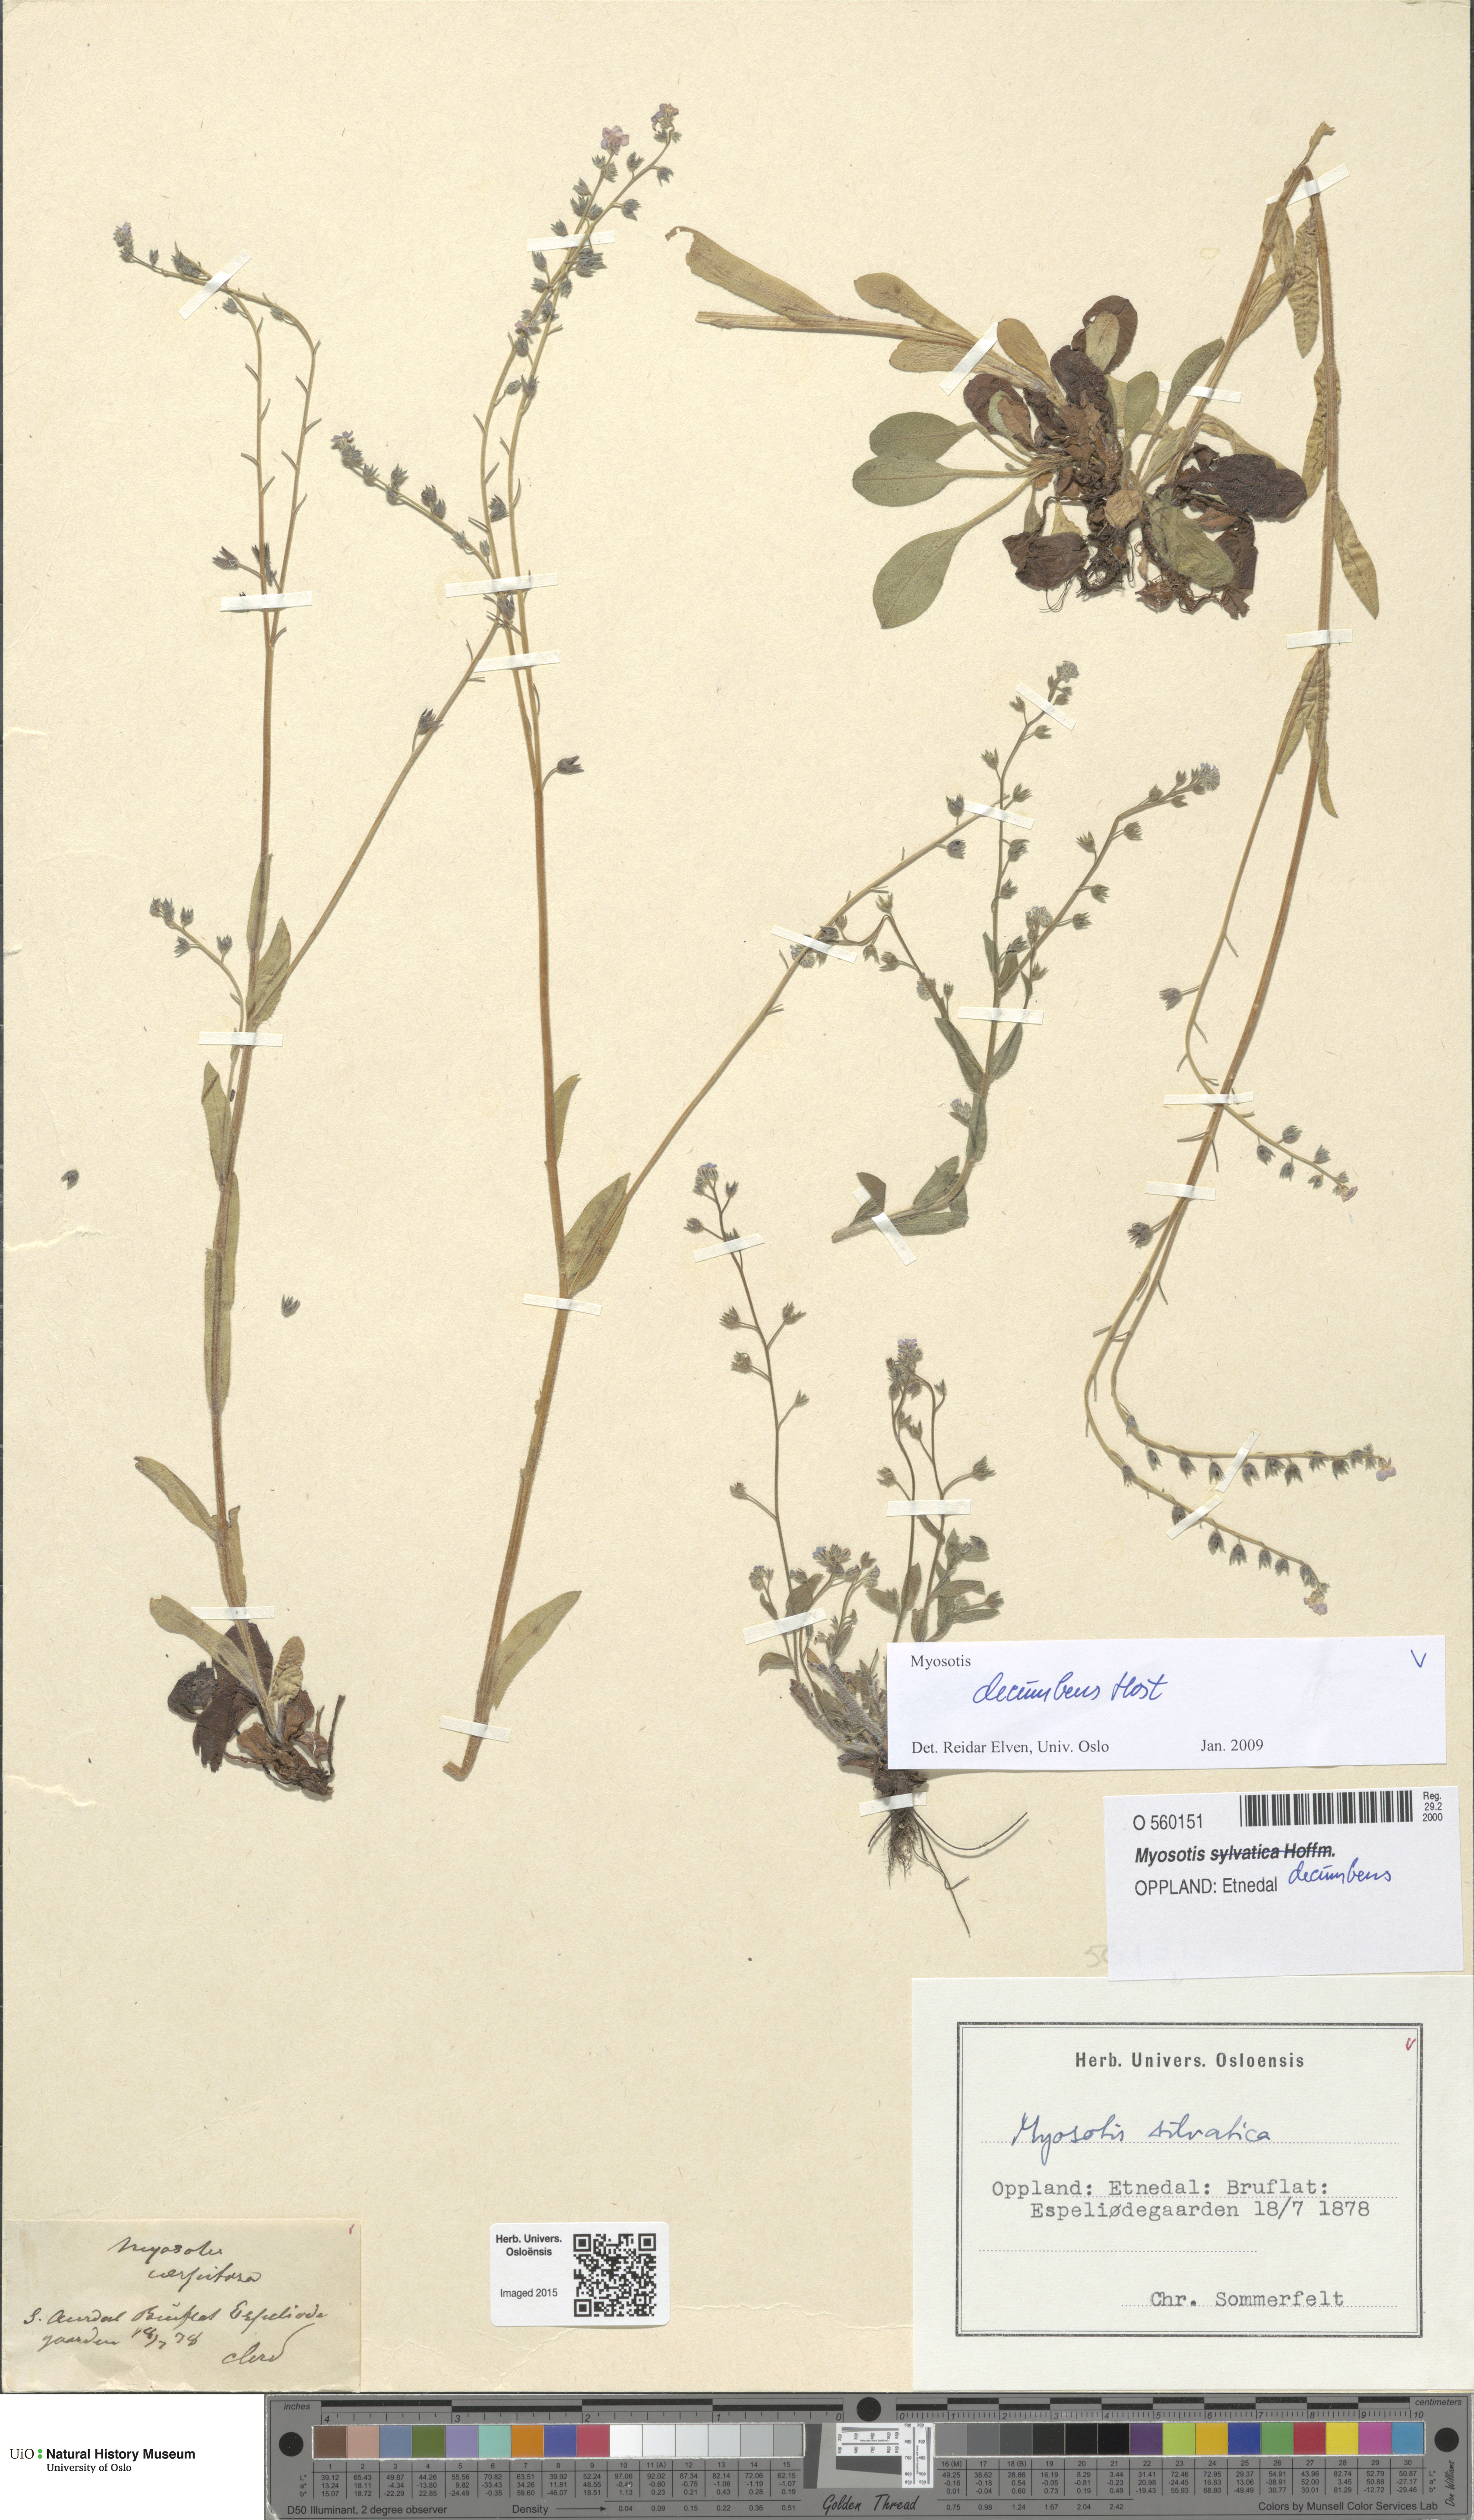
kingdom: Plantae
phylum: Tracheophyta
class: Magnoliopsida
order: Boraginales
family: Boraginaceae
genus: Myosotis
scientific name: Myosotis decumbens
